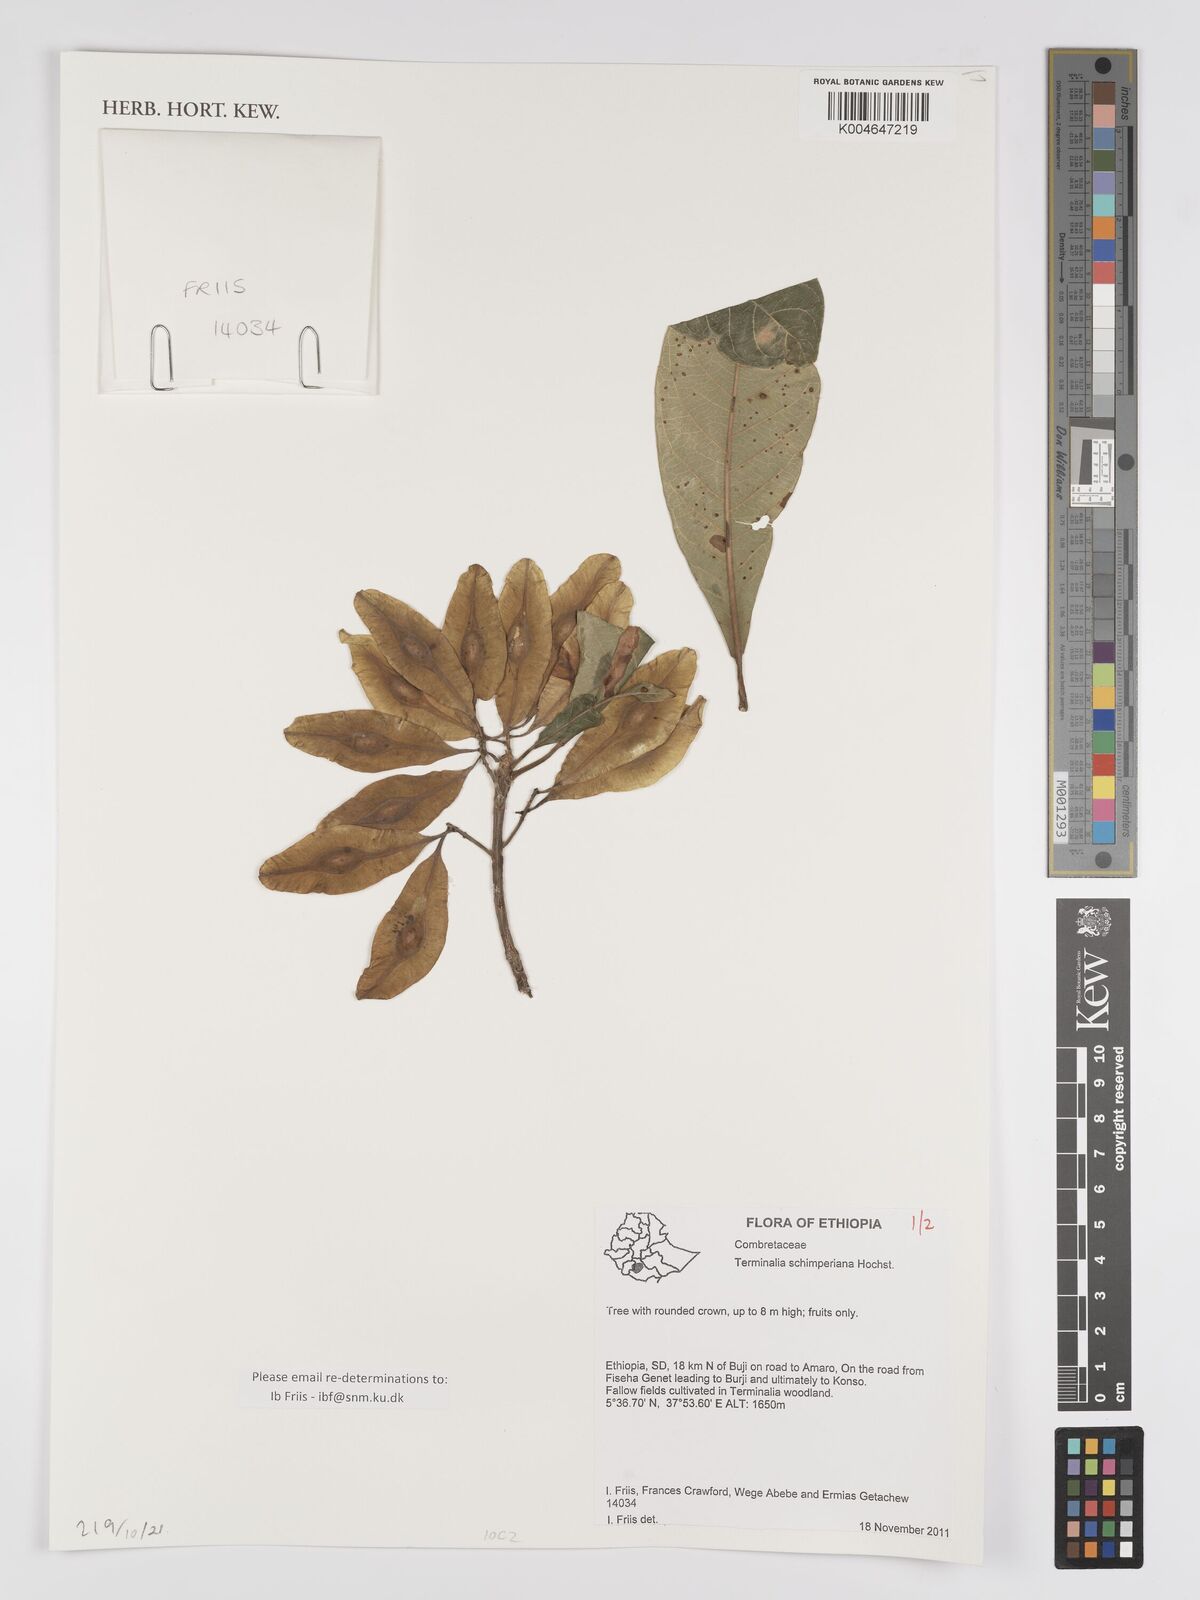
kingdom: Plantae
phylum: Tracheophyta
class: Magnoliopsida
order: Myrtales
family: Combretaceae
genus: Terminalia
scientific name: Terminalia schimperiana
